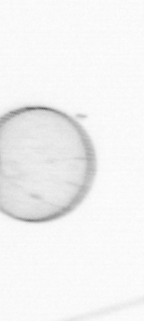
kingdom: Chromista
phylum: Myzozoa
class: Dinophyceae
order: Noctilucales
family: Noctilucaceae
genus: Noctiluca
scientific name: Noctiluca scintillans
